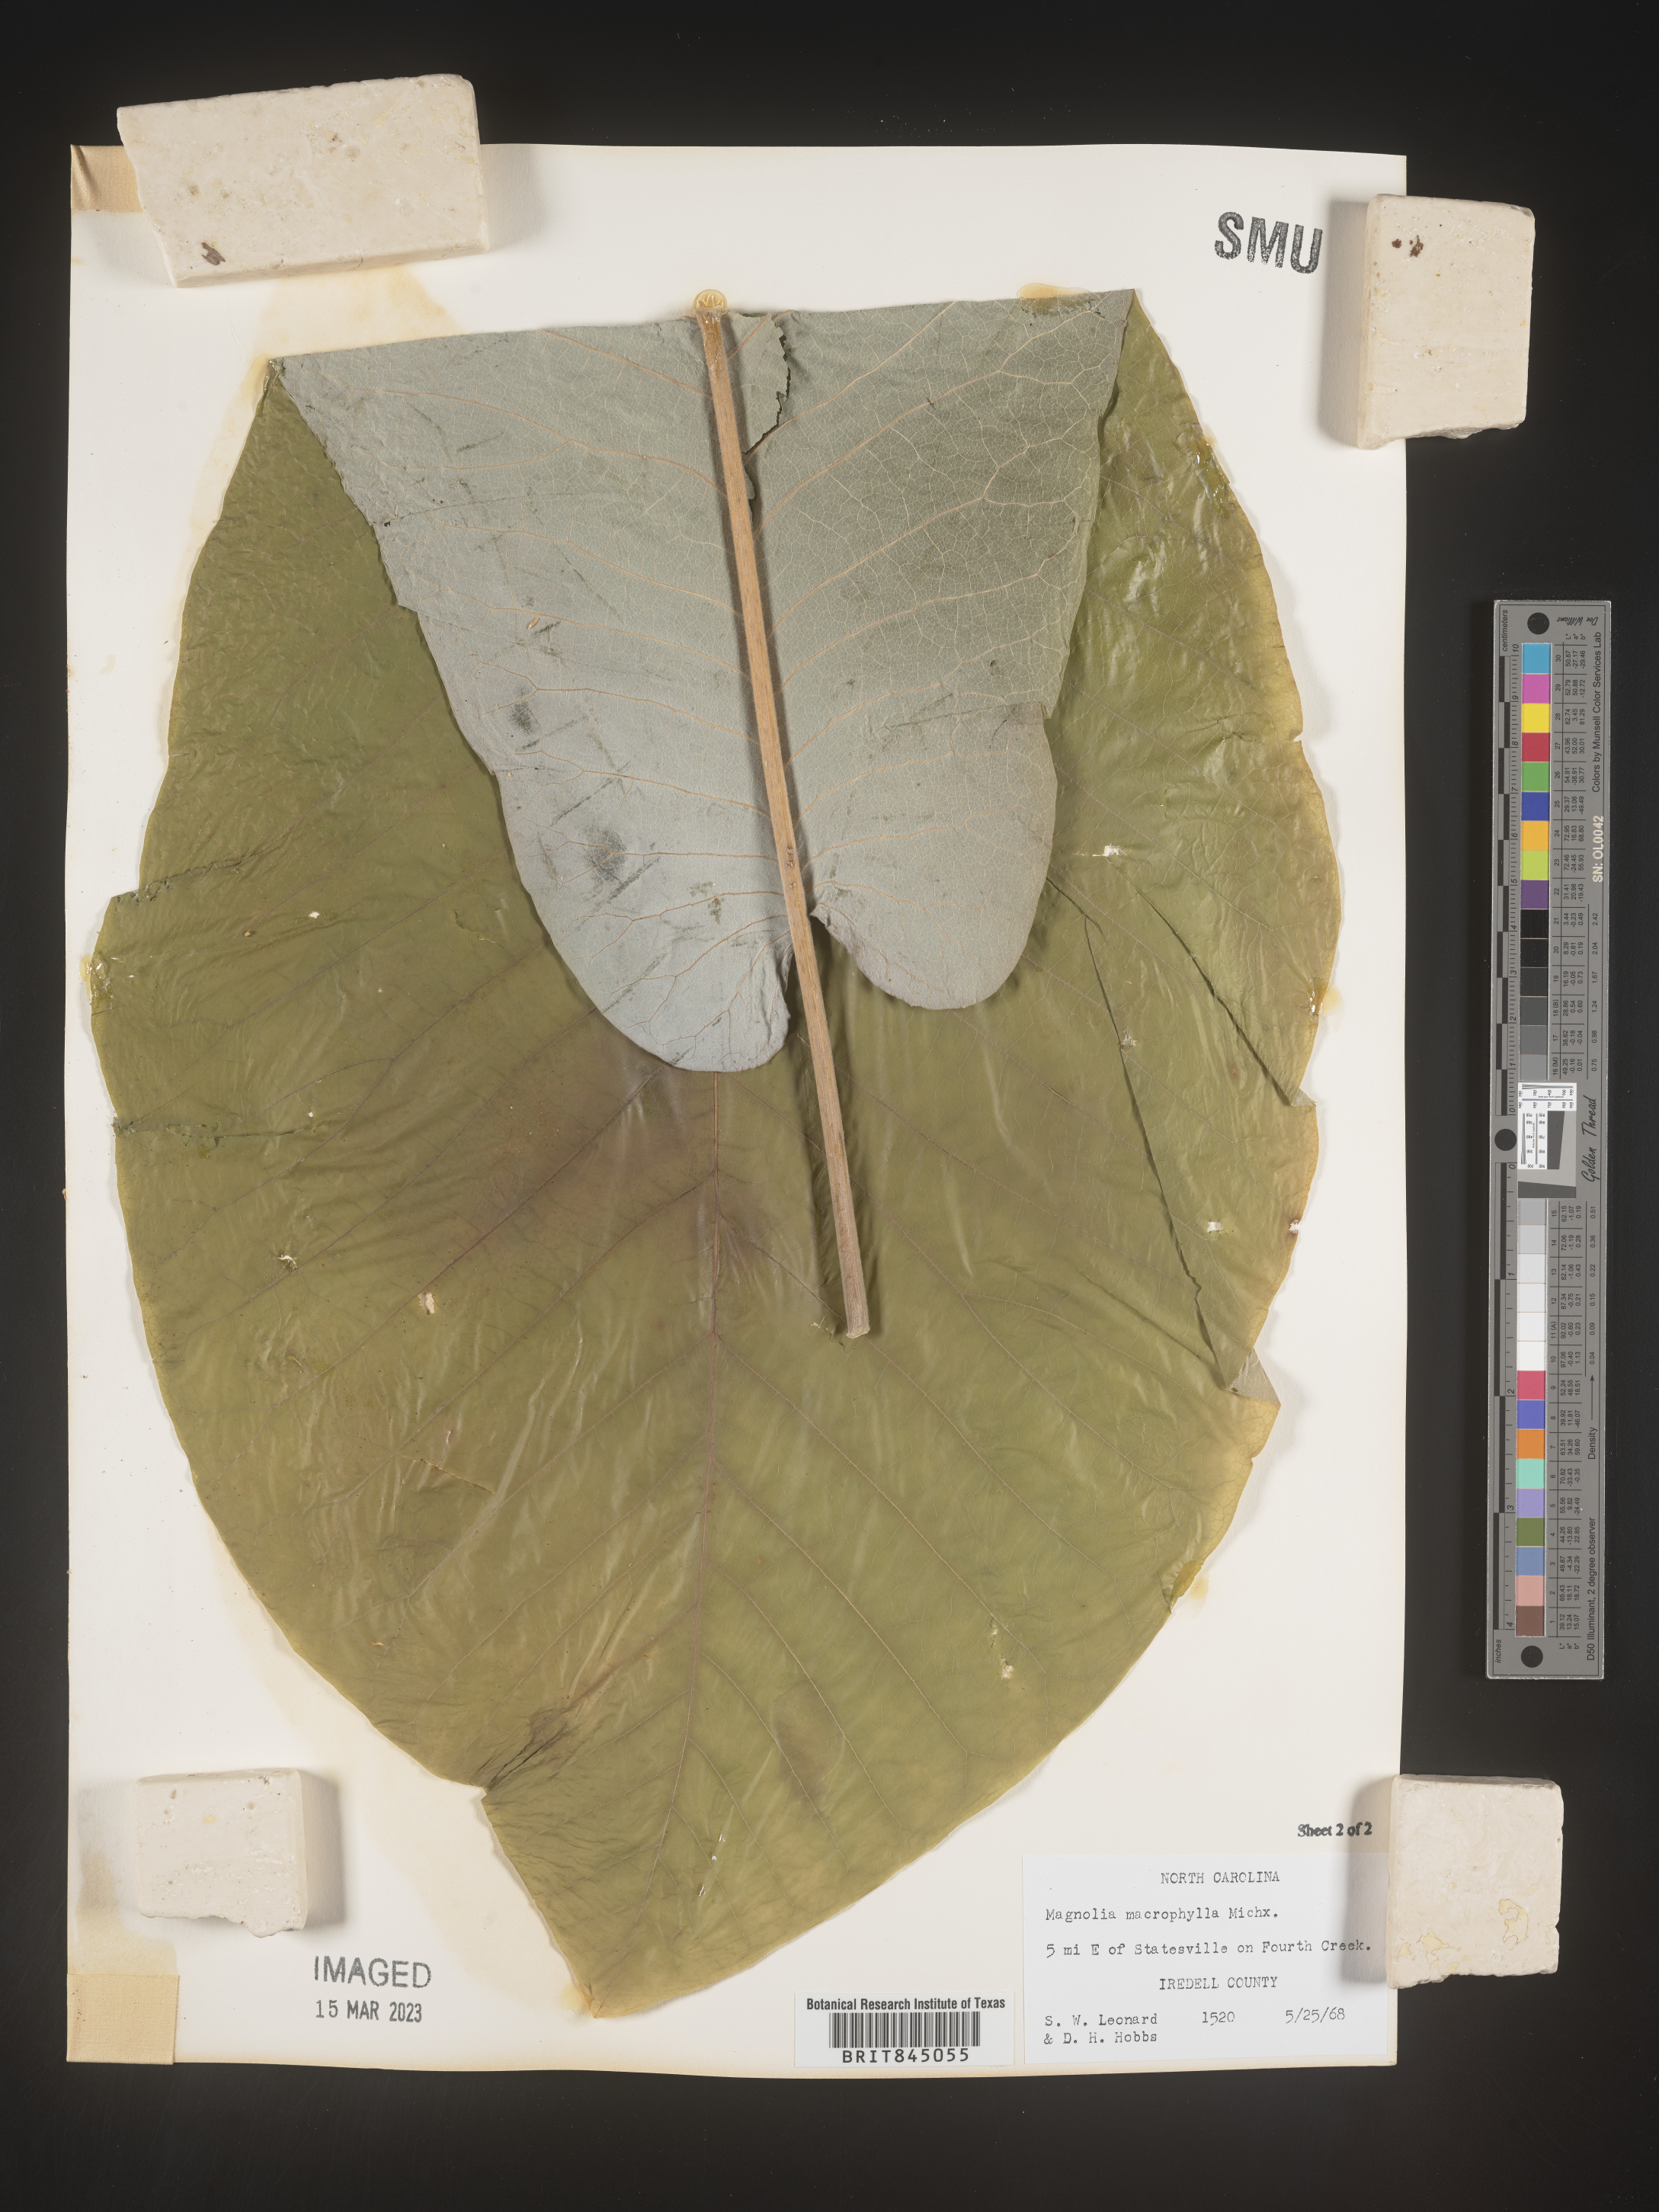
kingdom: Plantae
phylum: Tracheophyta
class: Magnoliopsida
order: Magnoliales
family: Magnoliaceae
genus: Magnolia
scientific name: Magnolia macrophylla
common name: Big-leaf magnolia
